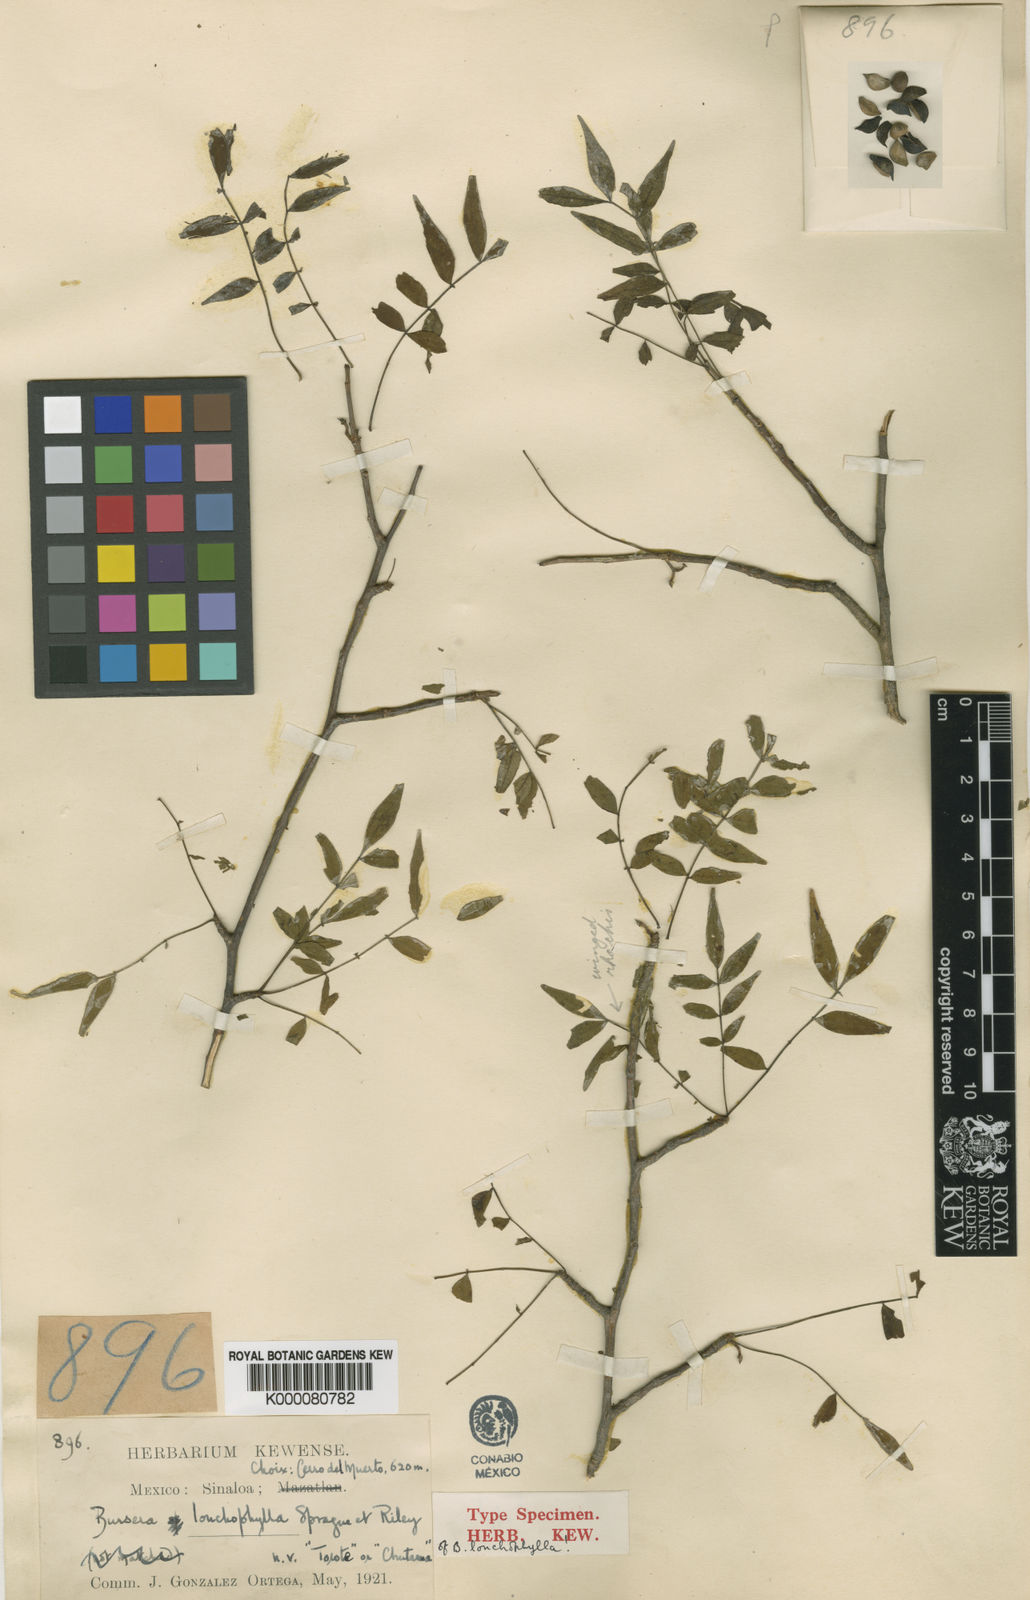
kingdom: Plantae
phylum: Tracheophyta
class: Magnoliopsida
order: Sapindales
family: Burseraceae
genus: Bursera
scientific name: Bursera confusa
